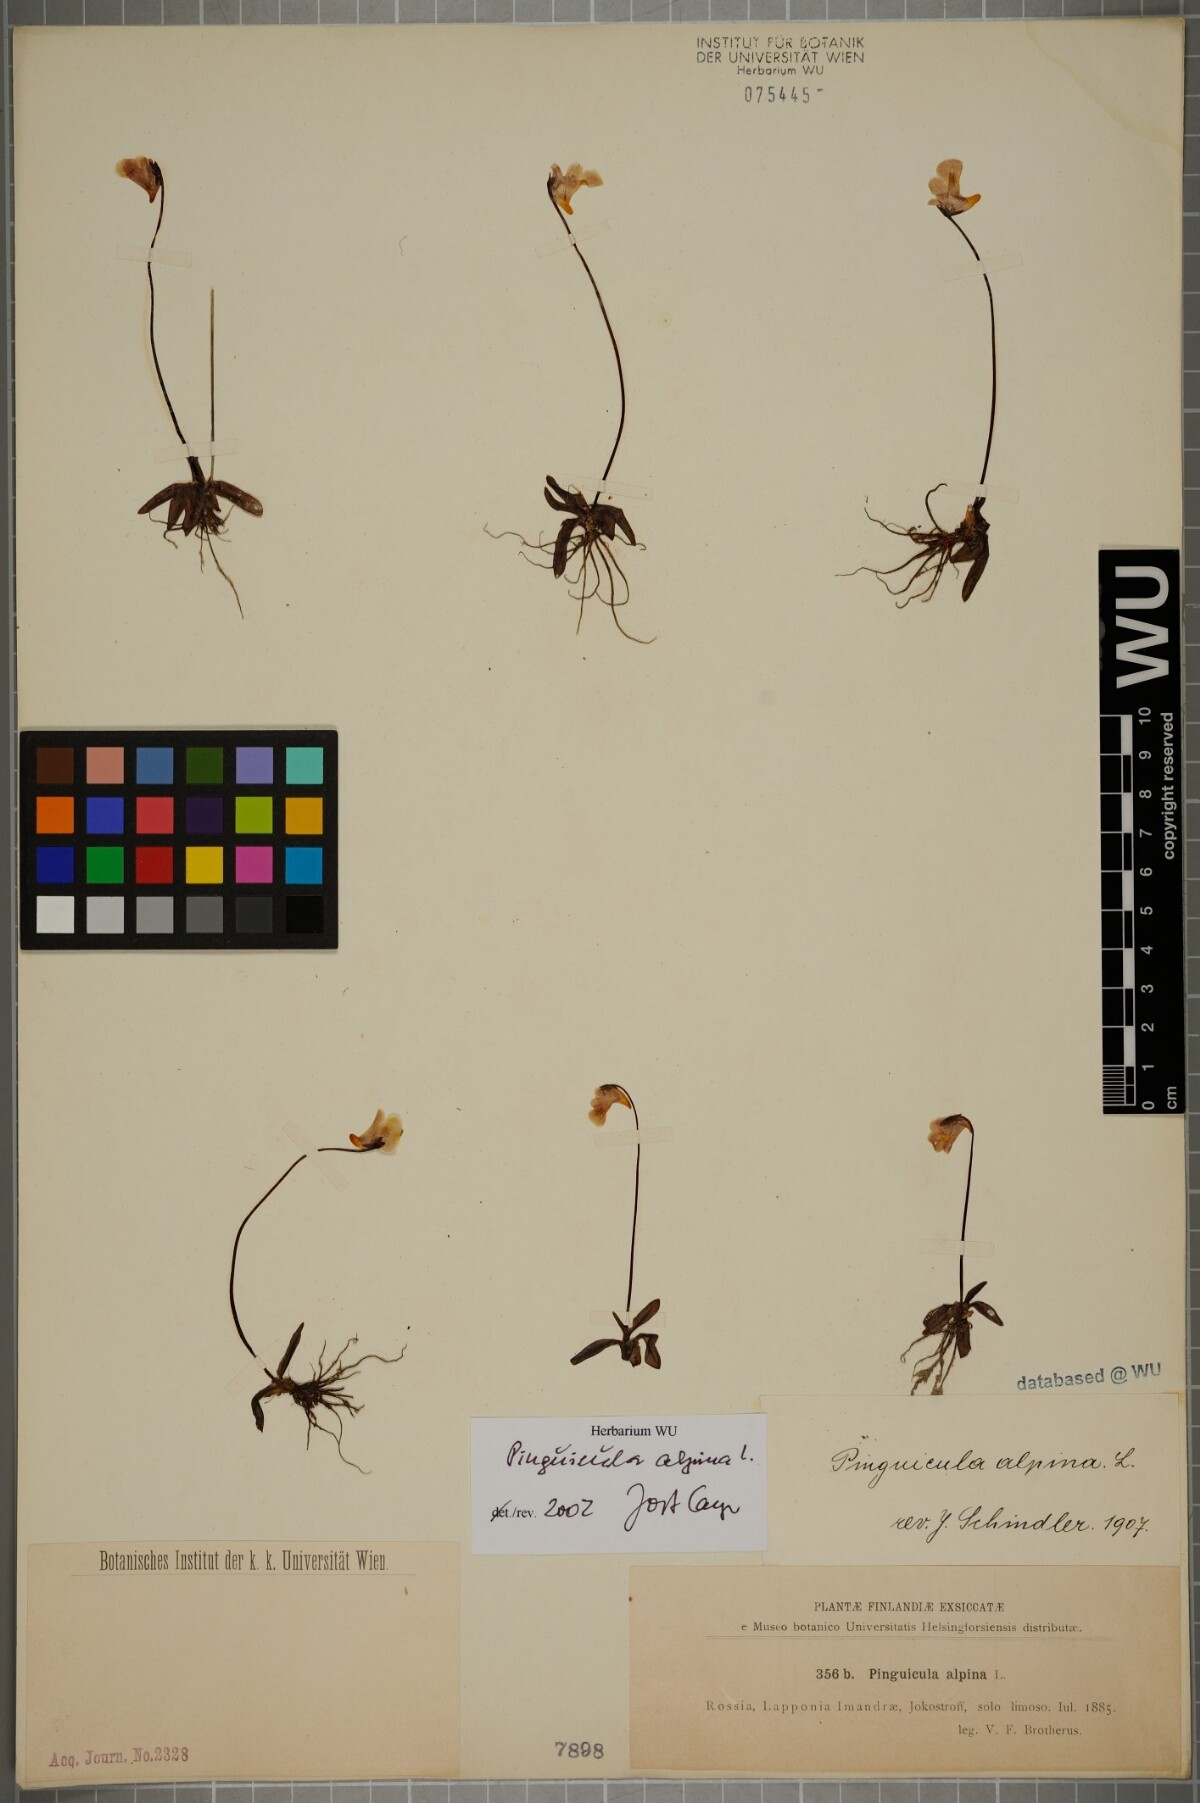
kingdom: Plantae
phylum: Tracheophyta
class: Magnoliopsida
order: Lamiales
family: Lentibulariaceae
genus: Pinguicula
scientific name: Pinguicula alpina
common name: Alpine butterwort
